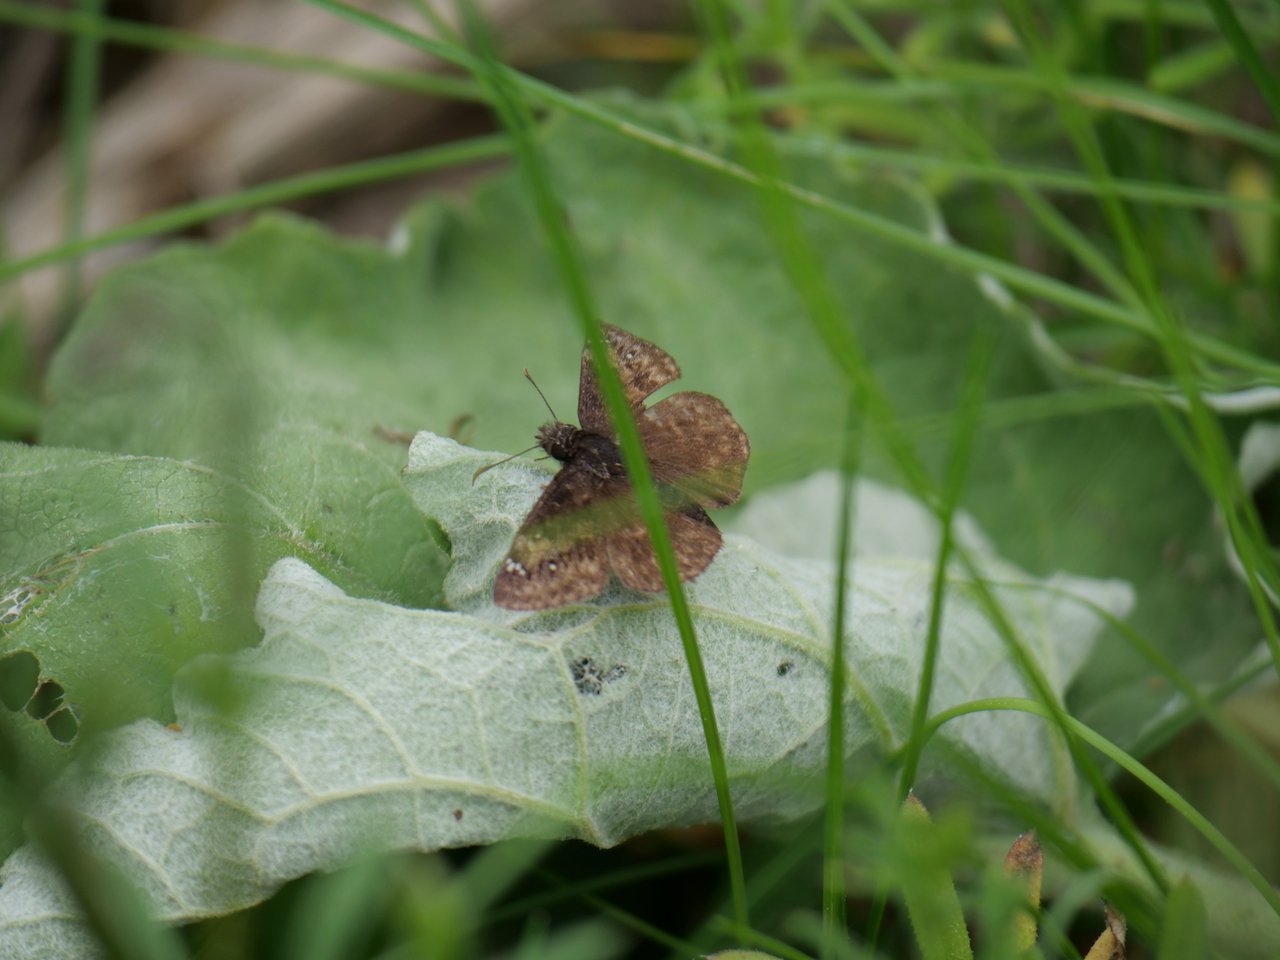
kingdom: Animalia
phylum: Arthropoda
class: Insecta
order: Lepidoptera
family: Hesperiidae
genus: Gesta
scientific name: Gesta
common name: Wild Indigo Duskywing
